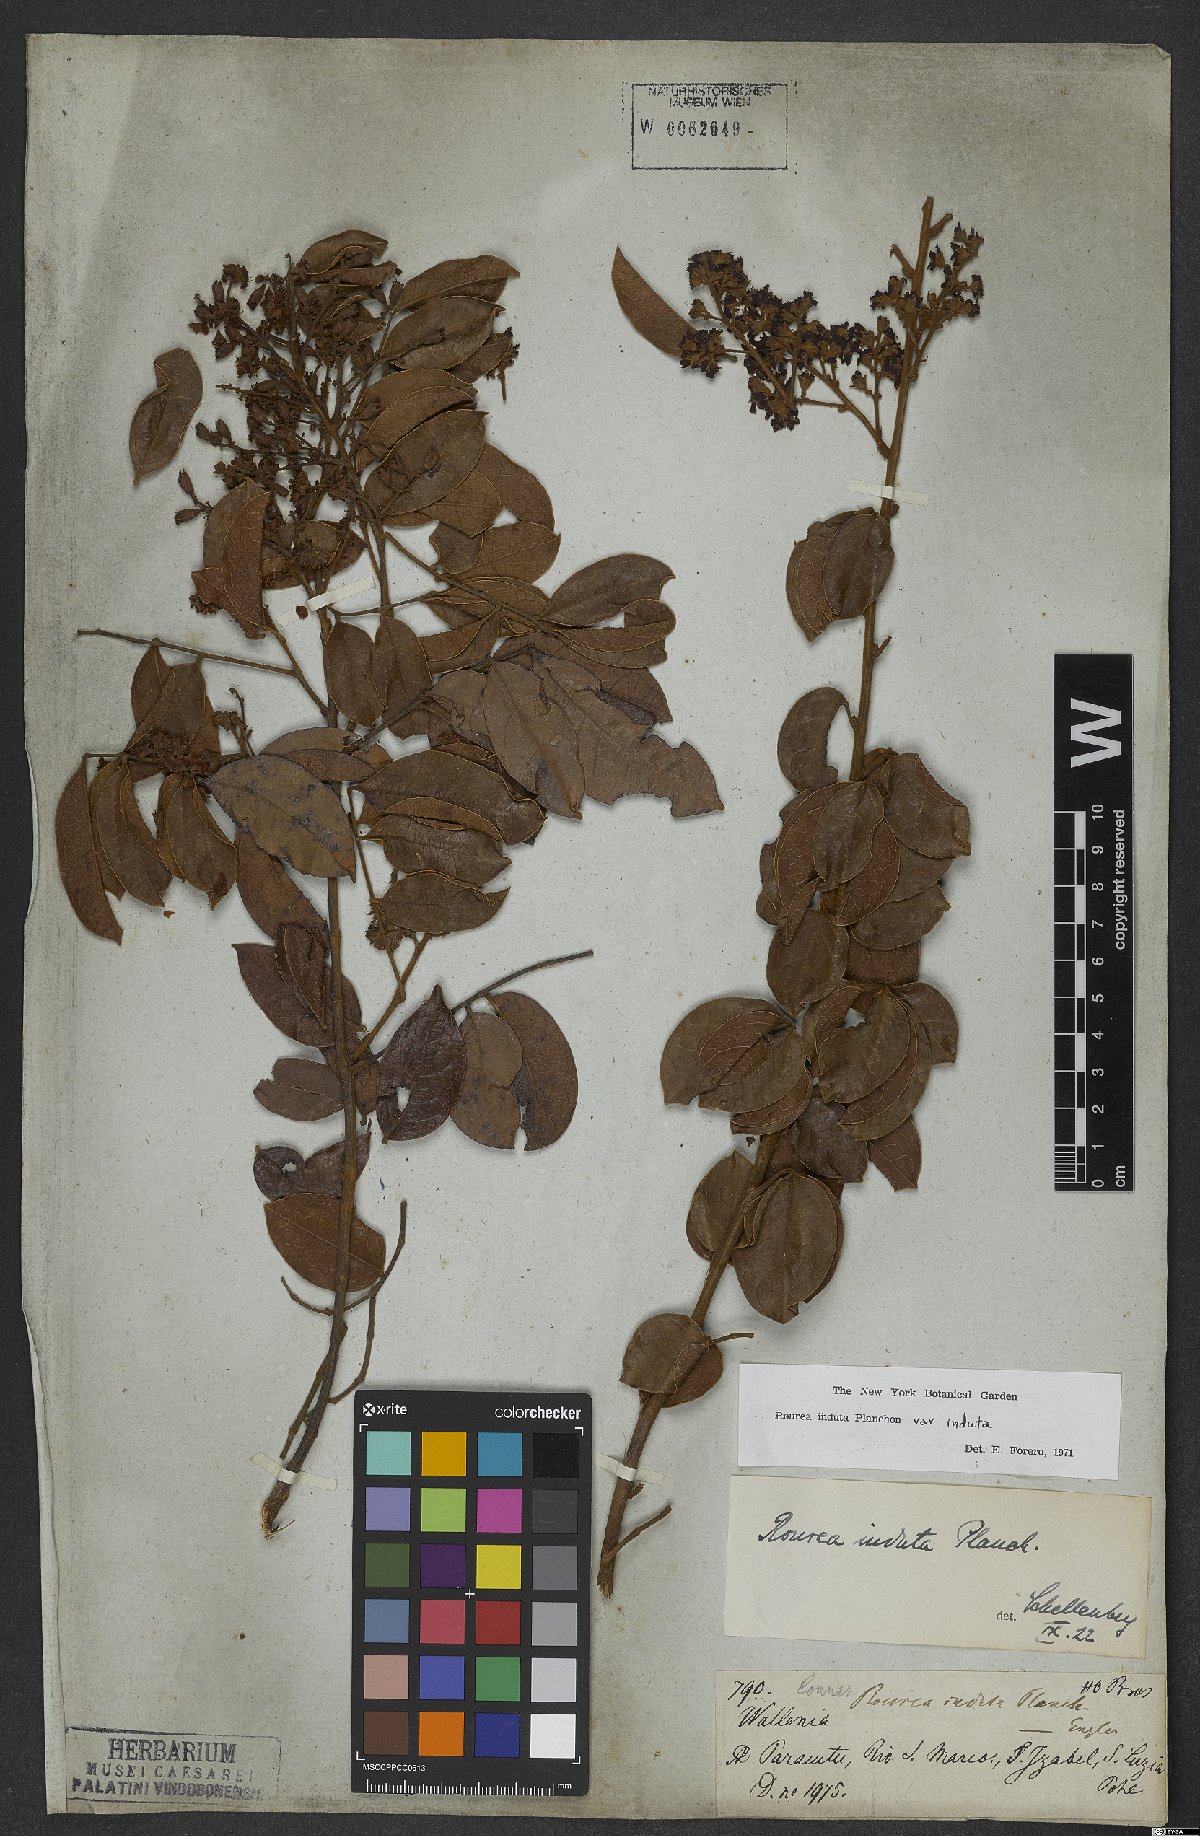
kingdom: Plantae
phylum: Tracheophyta
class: Magnoliopsida
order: Oxalidales
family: Connaraceae
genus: Rourea
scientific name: Rourea induta
